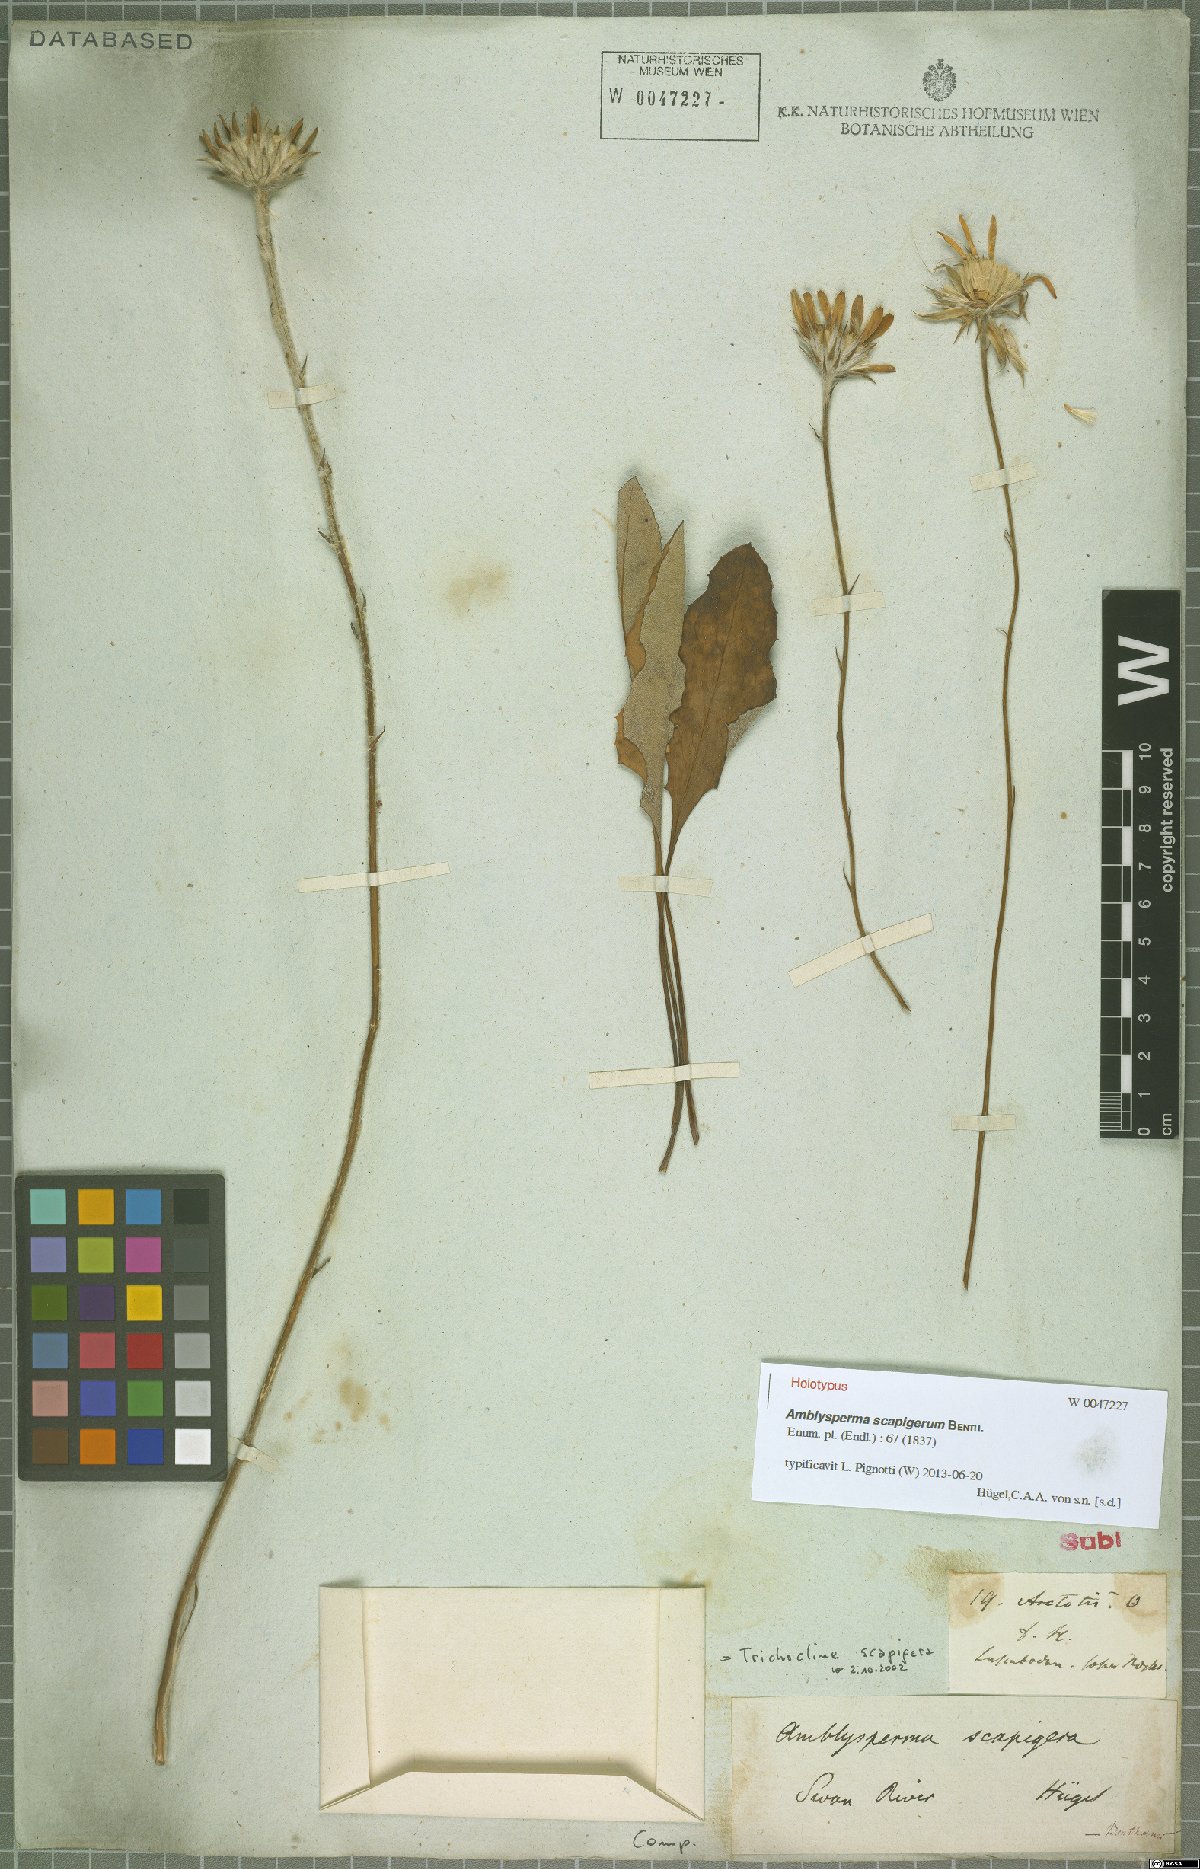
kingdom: Plantae
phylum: Tracheophyta
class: Magnoliopsida
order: Asterales
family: Asteraceae
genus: Amblysperma
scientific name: Amblysperma spathulata
